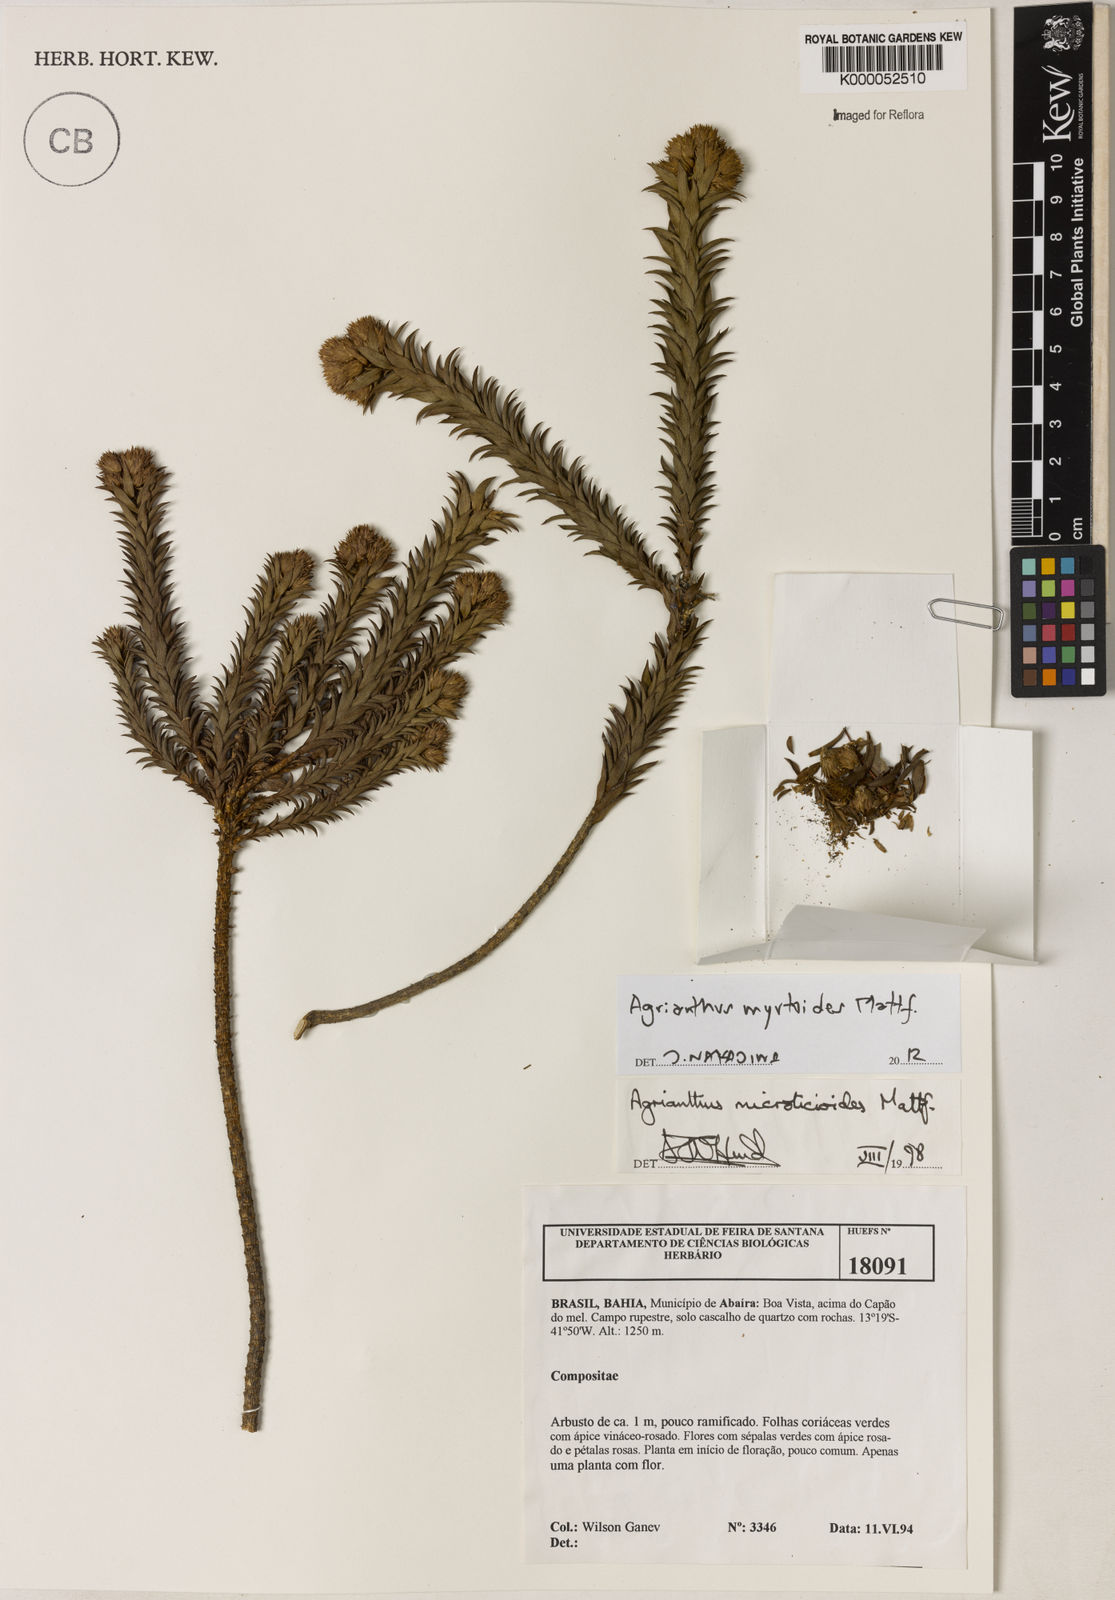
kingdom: Plantae
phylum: Tracheophyta
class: Magnoliopsida
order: Asterales
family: Asteraceae
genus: Agrianthus
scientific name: Agrianthus microlicioides
